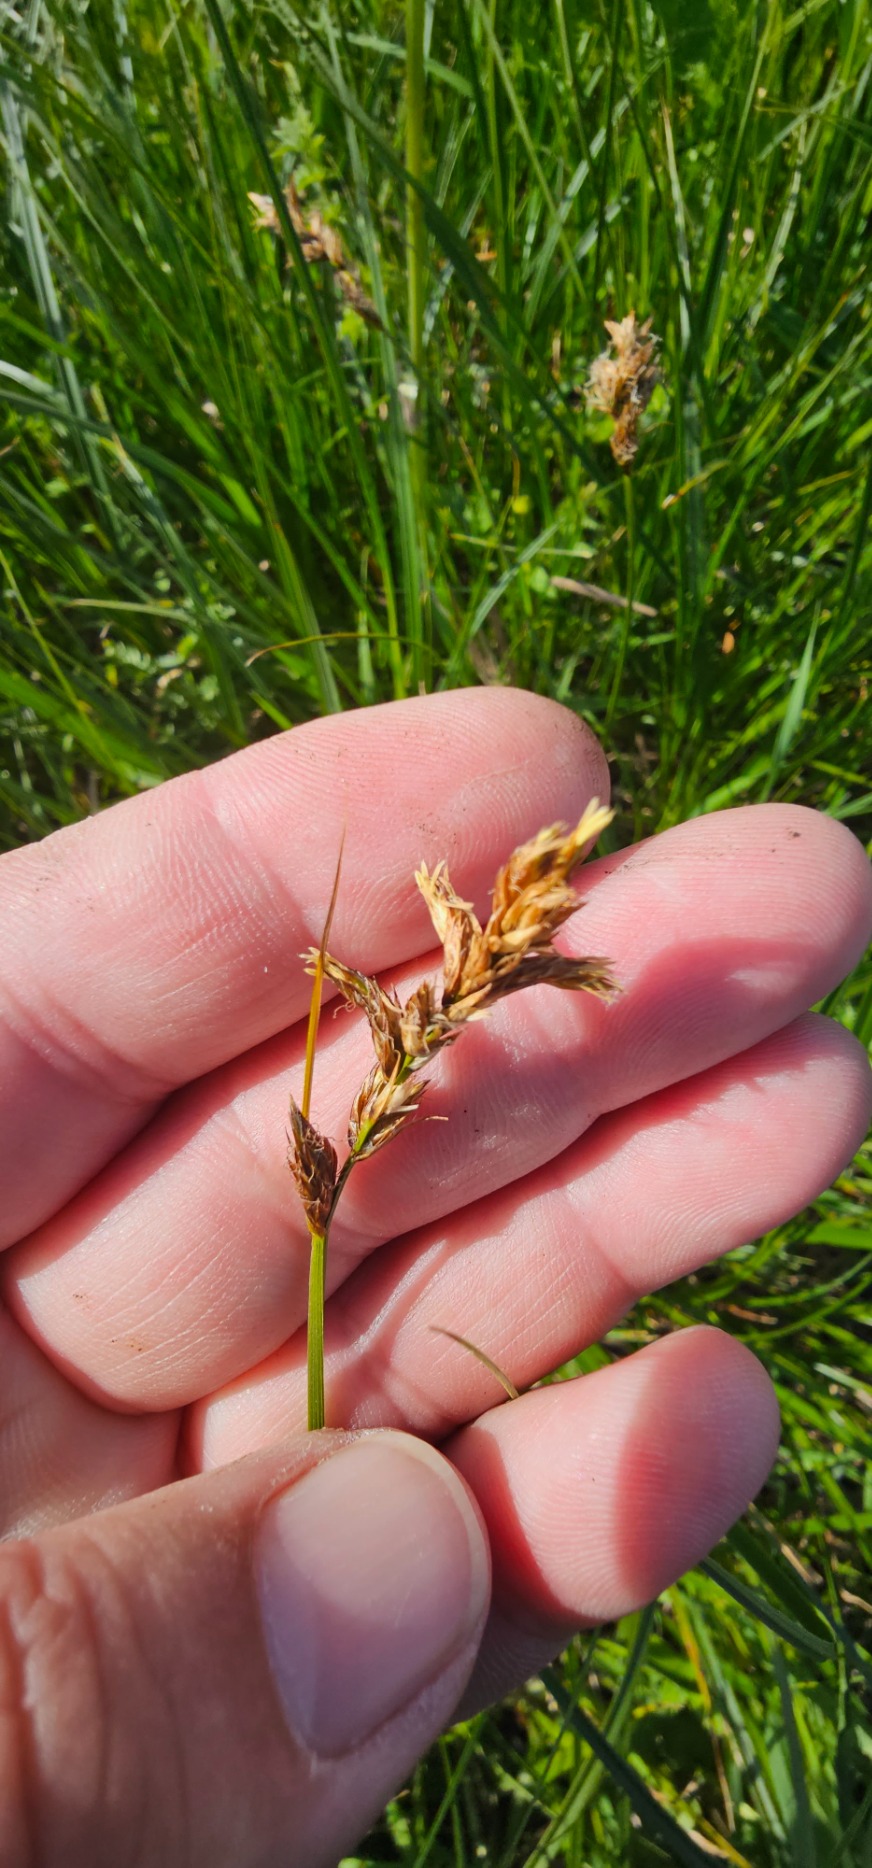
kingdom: Plantae
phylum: Tracheophyta
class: Liliopsida
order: Poales
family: Cyperaceae
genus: Carex
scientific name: Carex disticha
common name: Toradet star
